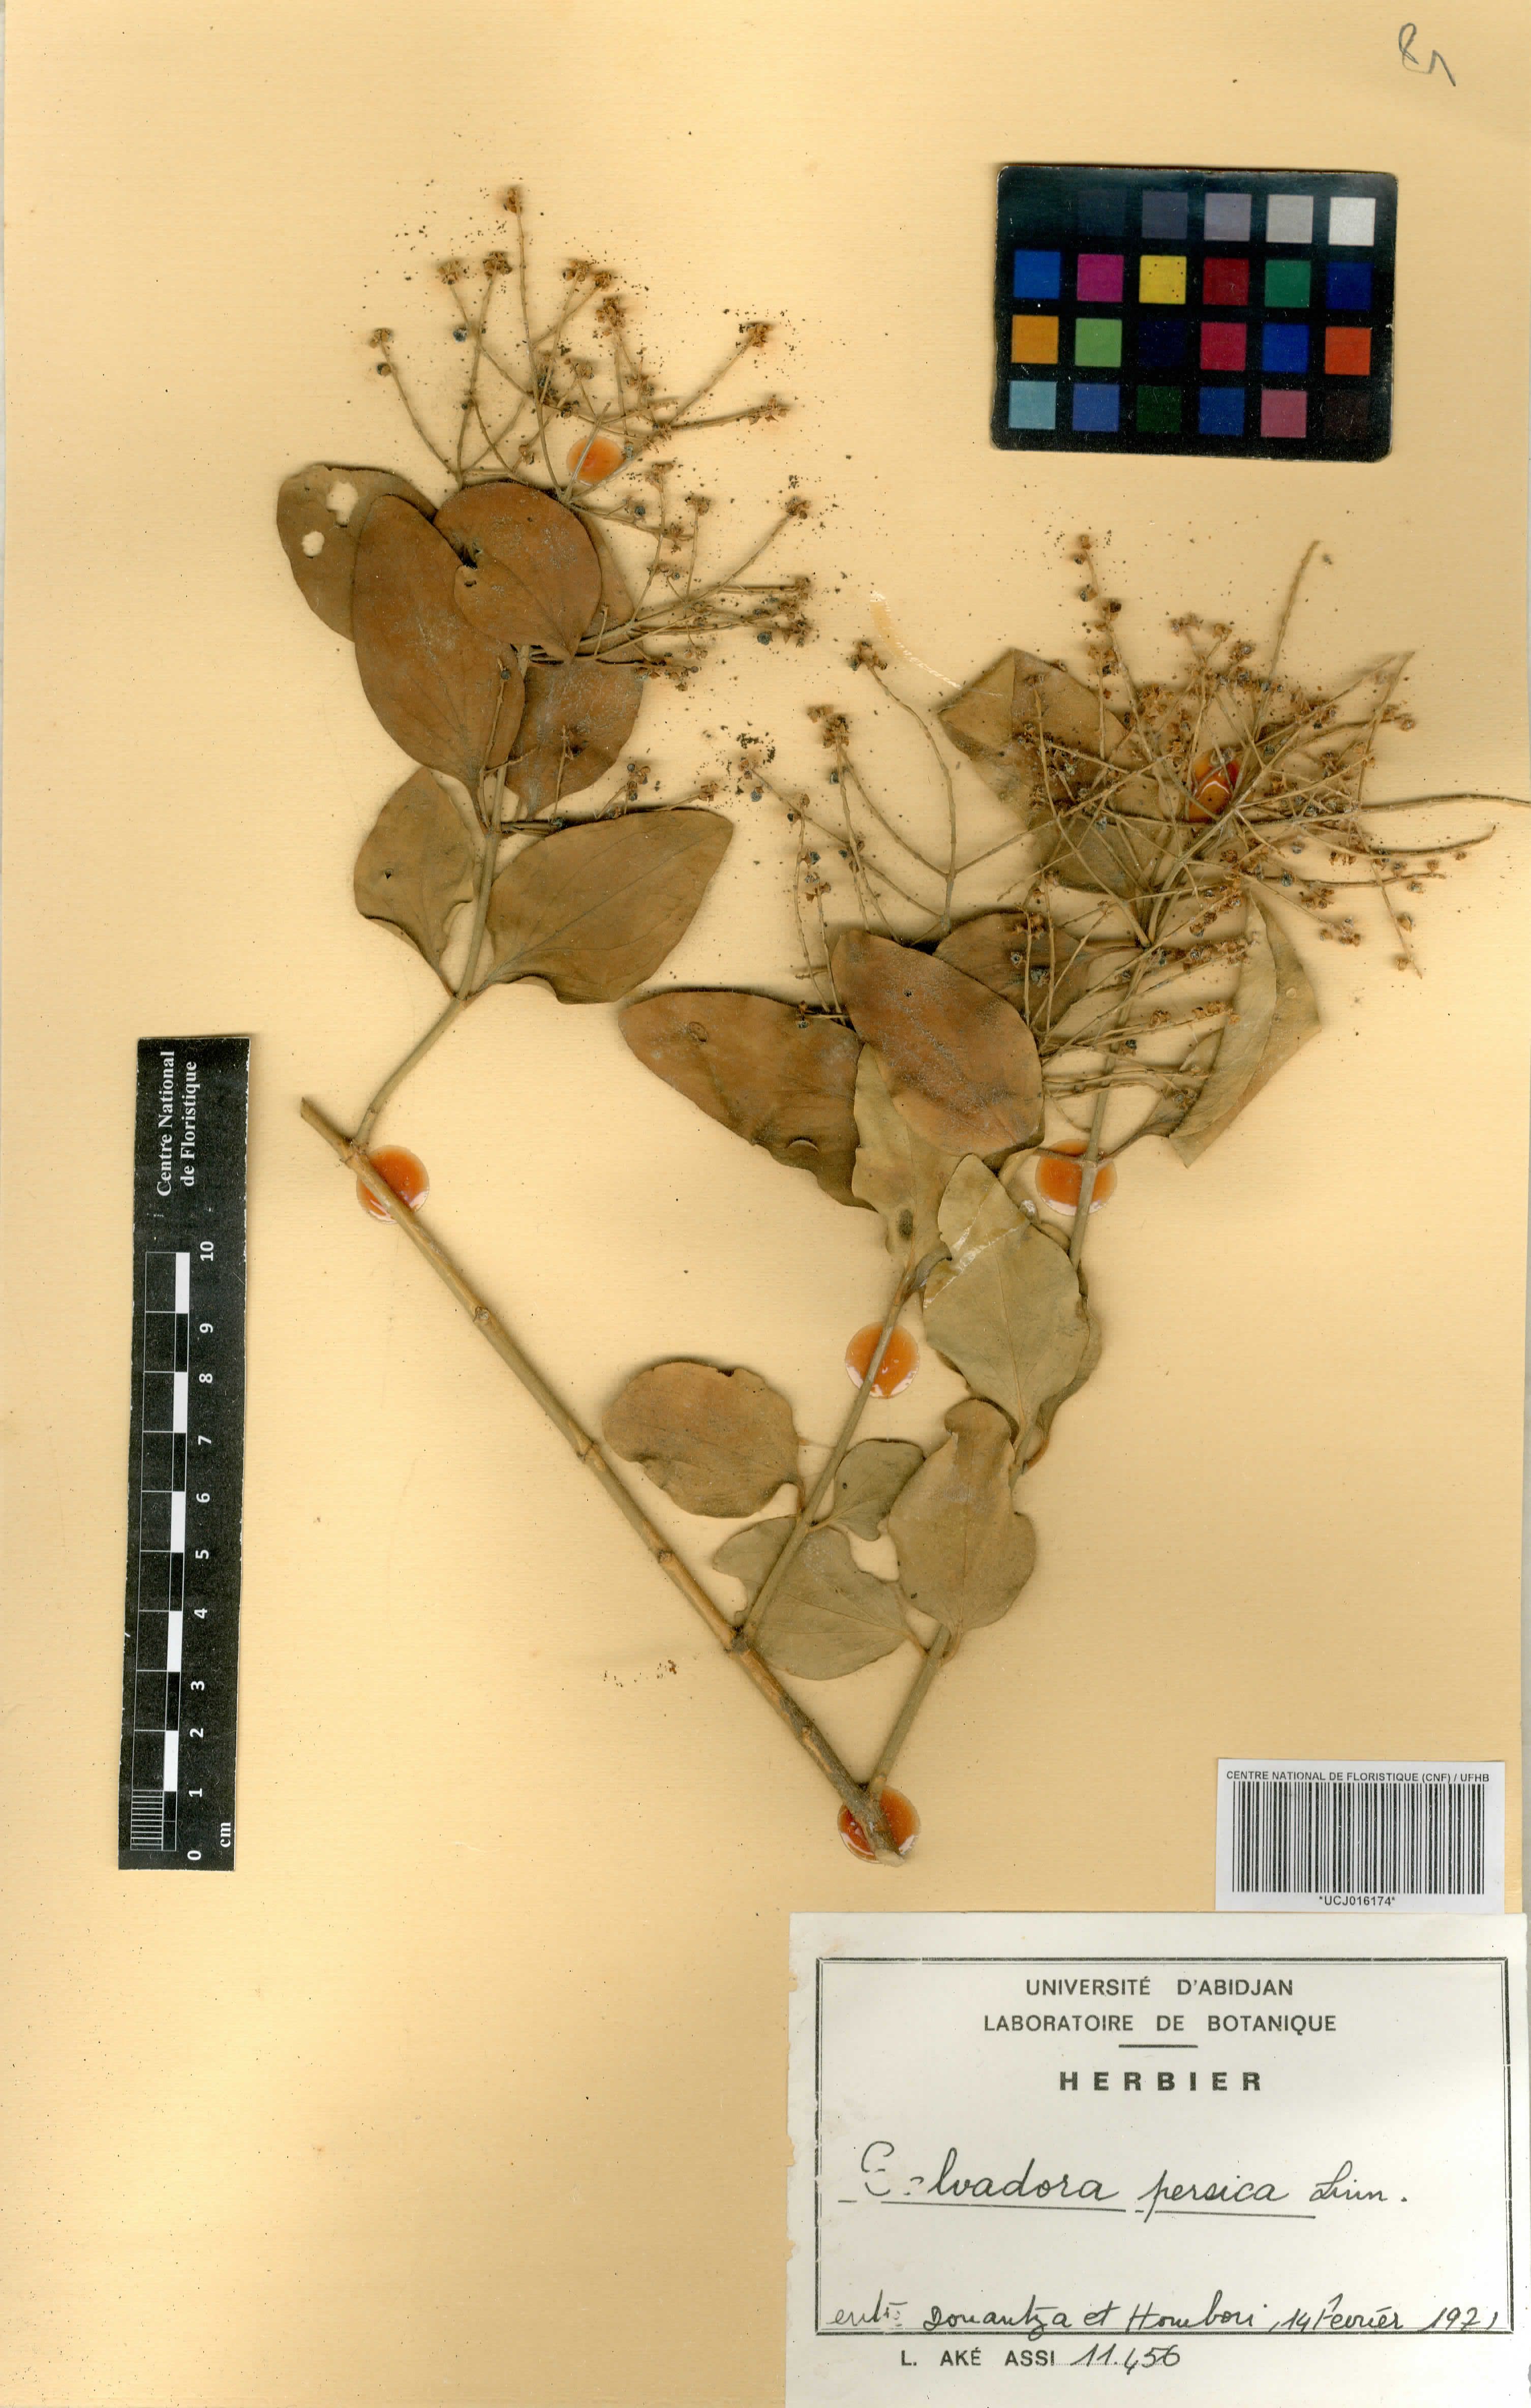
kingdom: Plantae
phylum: Tracheophyta
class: Magnoliopsida
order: Brassicales
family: Salvadoraceae
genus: Salvadora
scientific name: Salvadora persica
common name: Toothbrushtree
